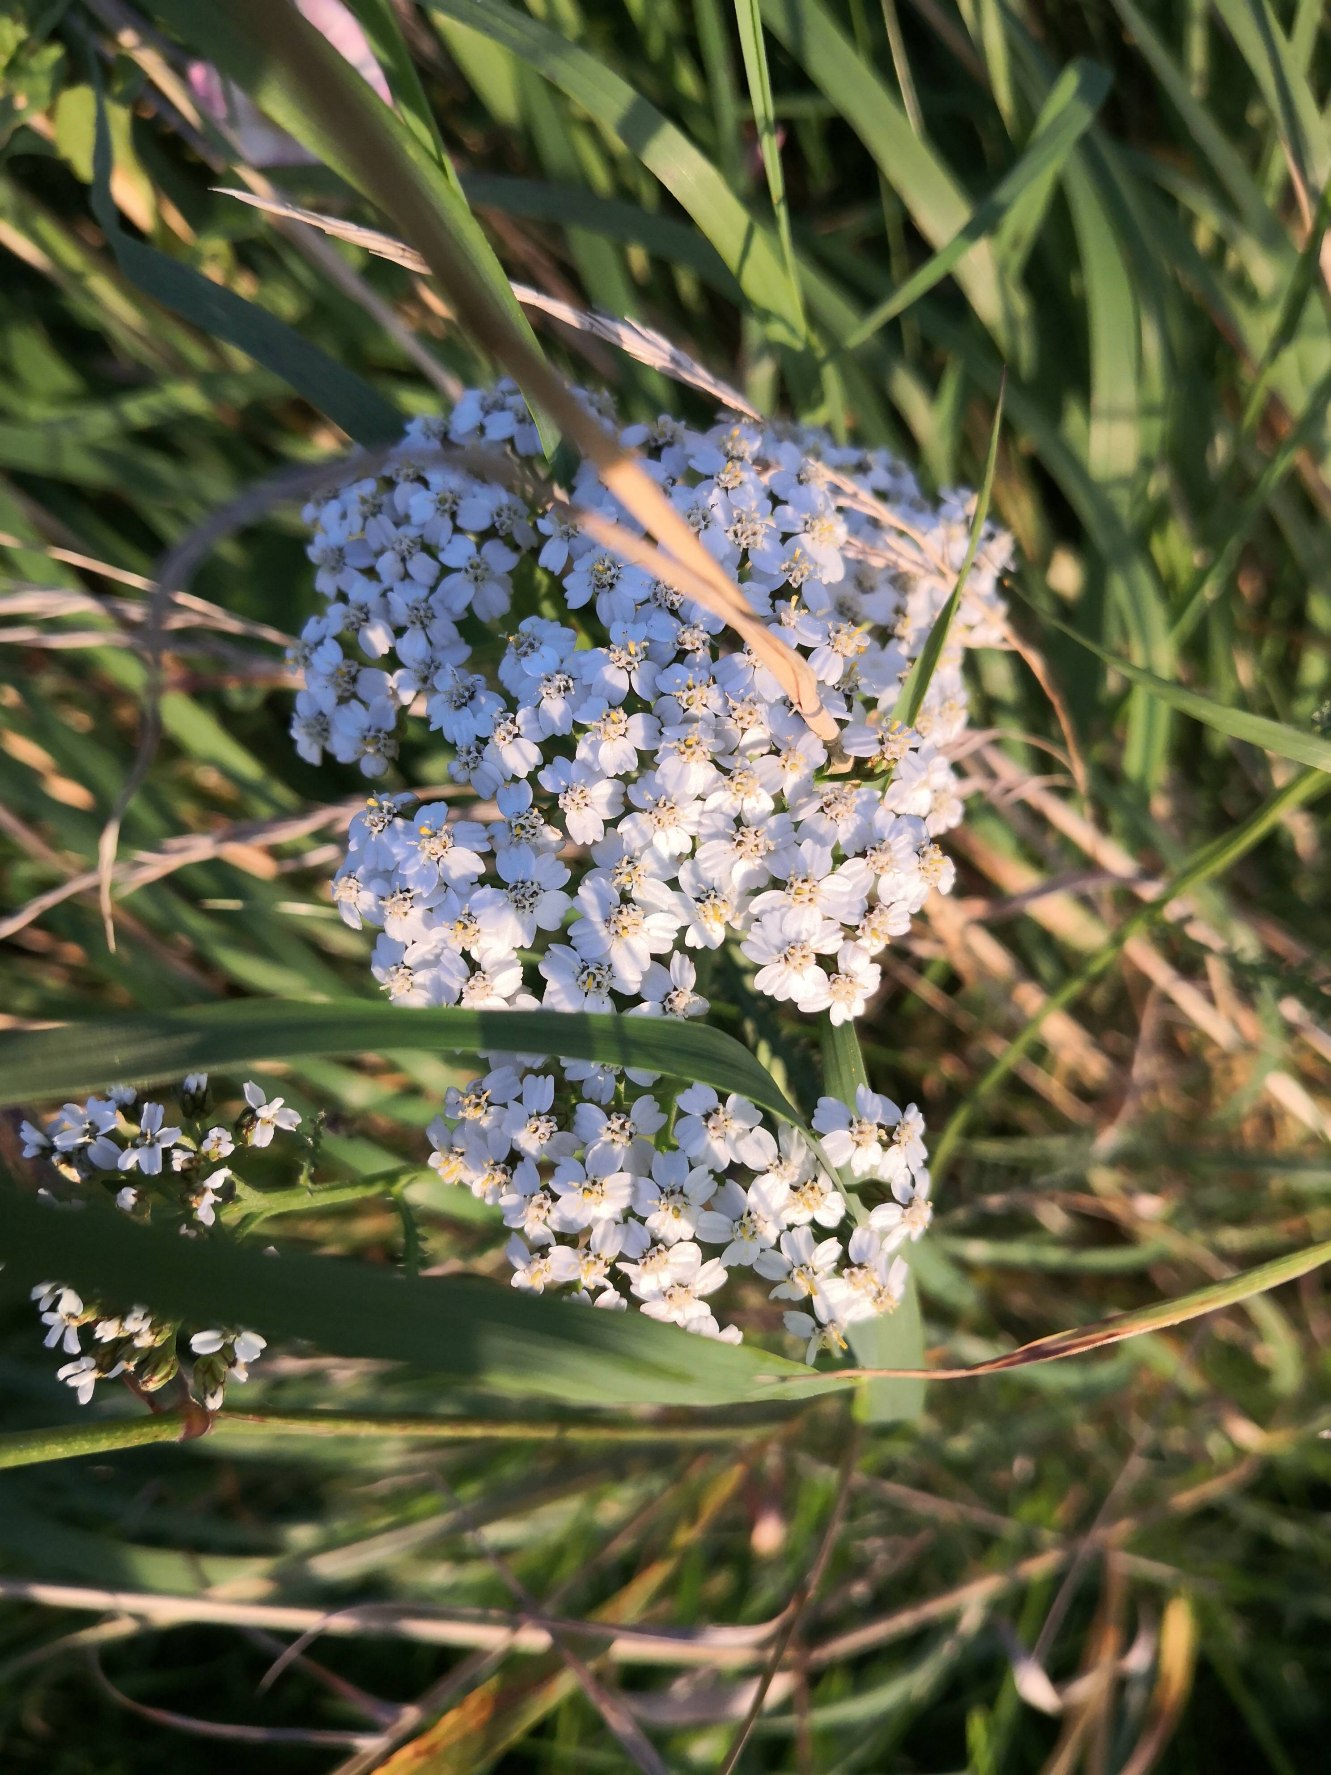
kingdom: Plantae
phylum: Tracheophyta
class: Magnoliopsida
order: Asterales
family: Asteraceae
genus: Achillea
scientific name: Achillea millefolium
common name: Almindelig røllike
